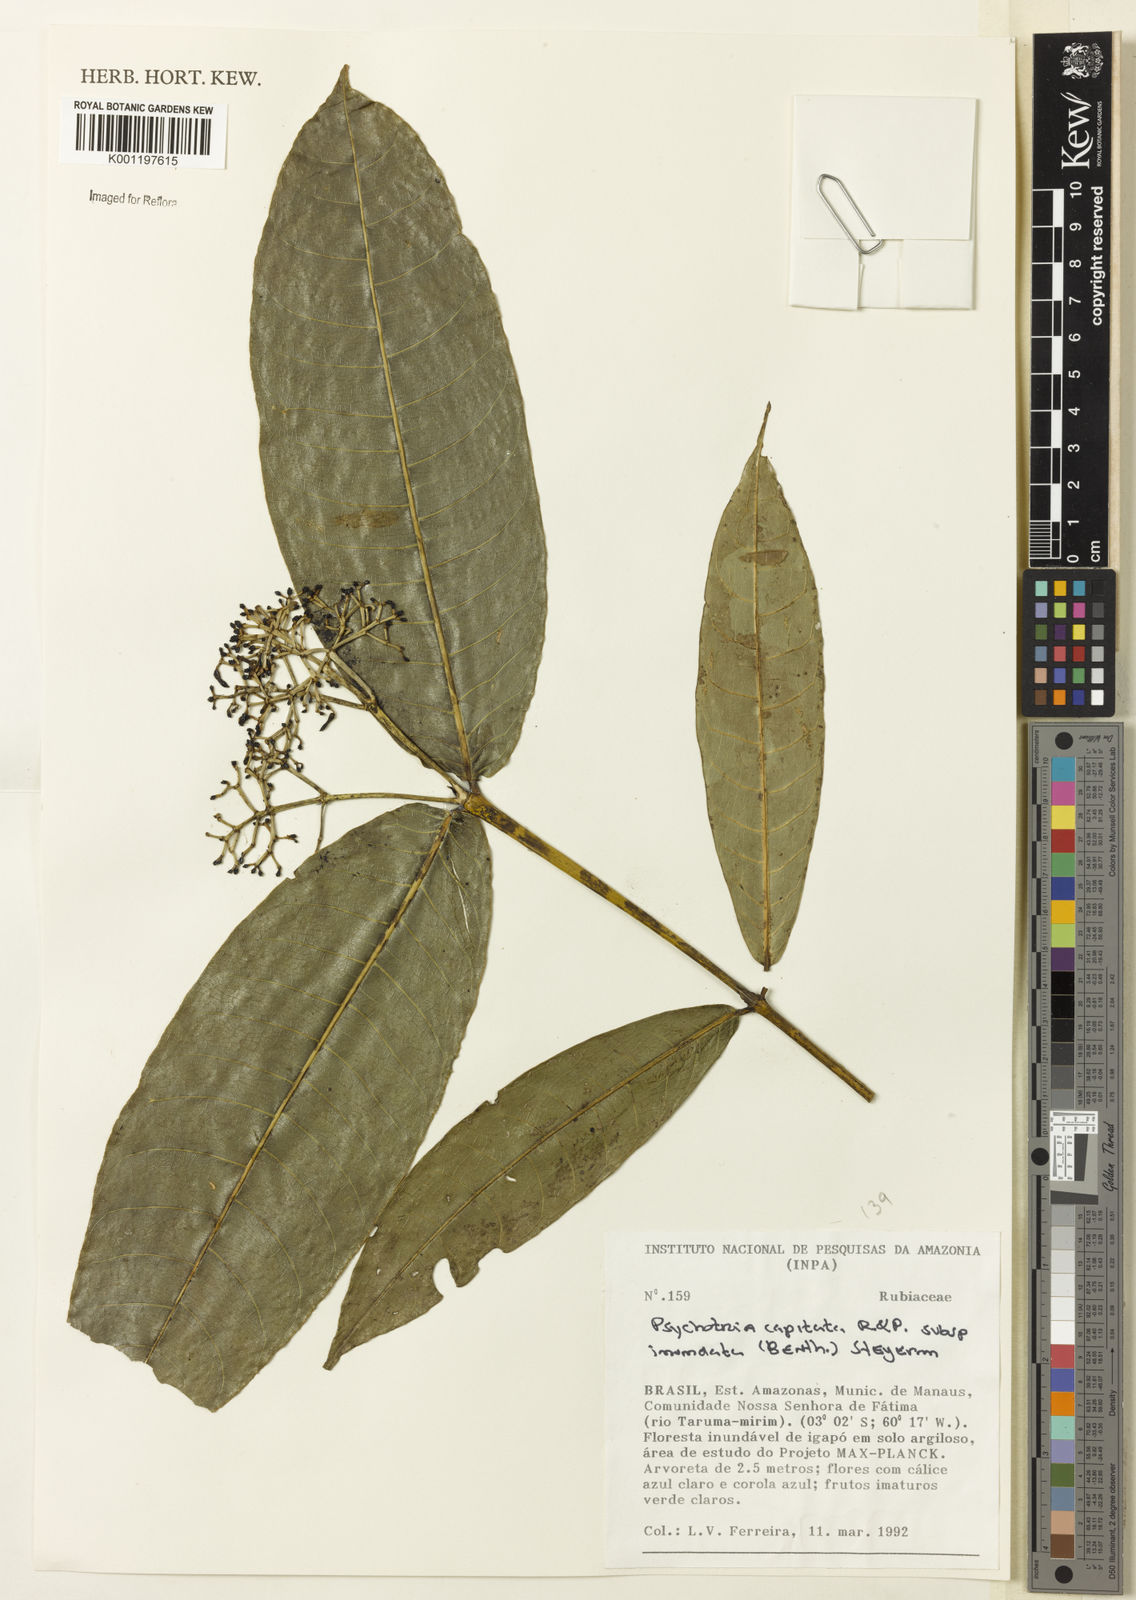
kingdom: Plantae
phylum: Tracheophyta
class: Magnoliopsida
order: Gentianales
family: Rubiaceae
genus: Palicourea
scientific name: Palicourea violacea
